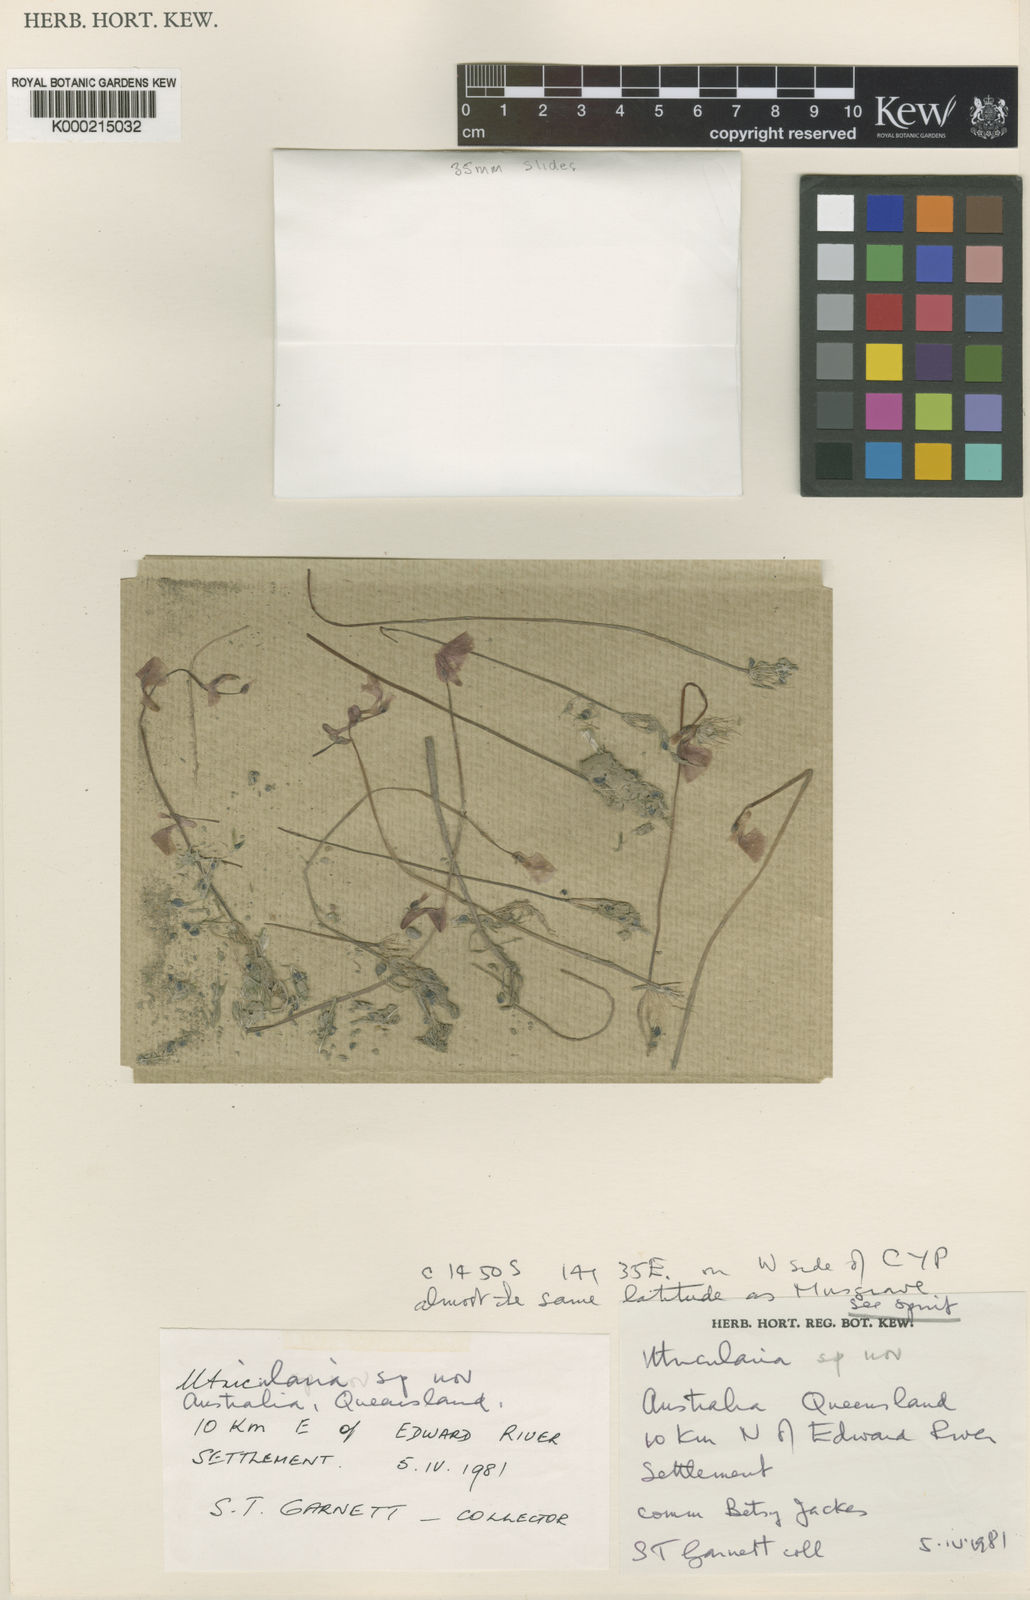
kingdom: Plantae
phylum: Tracheophyta
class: Magnoliopsida
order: Lamiales
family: Lentibulariaceae
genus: Utricularia
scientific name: Utricularia terrae-reginae
